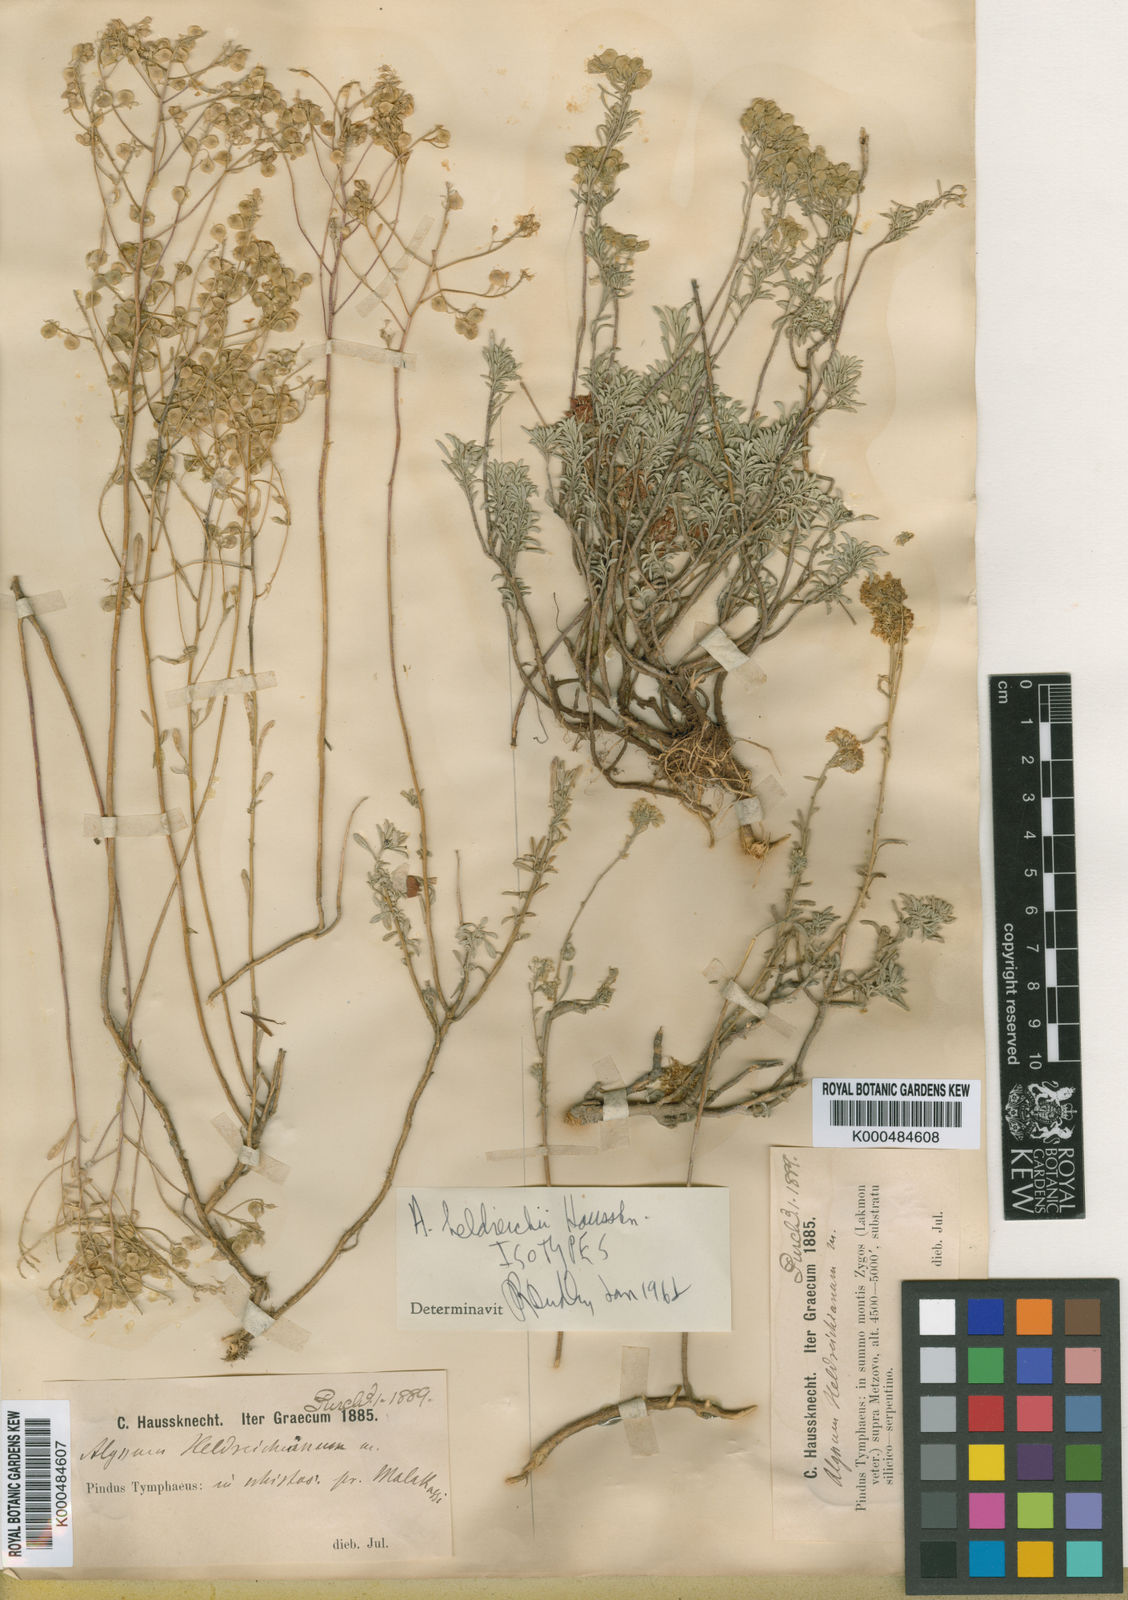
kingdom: Plantae
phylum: Tracheophyta
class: Magnoliopsida
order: Brassicales
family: Brassicaceae
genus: Odontarrhena
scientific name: Odontarrhena heldreichii
